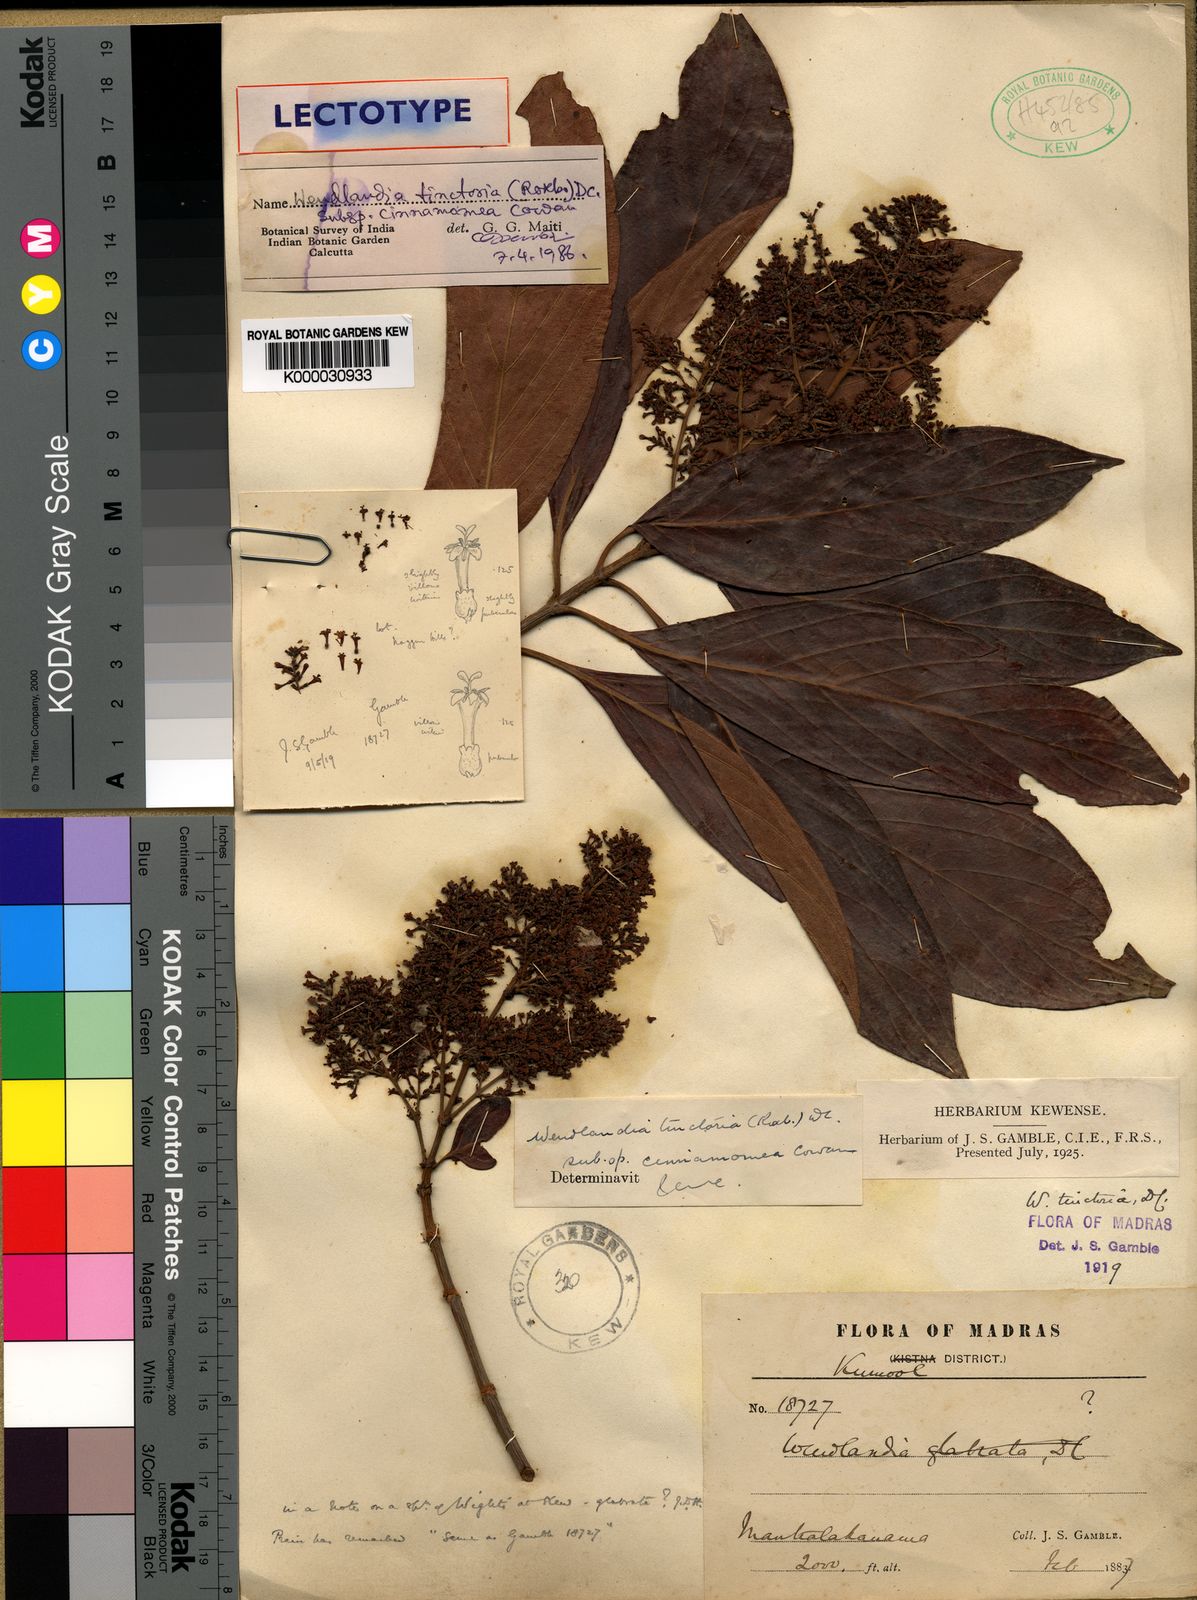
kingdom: Plantae
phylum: Tracheophyta
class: Magnoliopsida
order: Gentianales
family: Rubiaceae
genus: Wendlandia
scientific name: Wendlandia tinctoria
